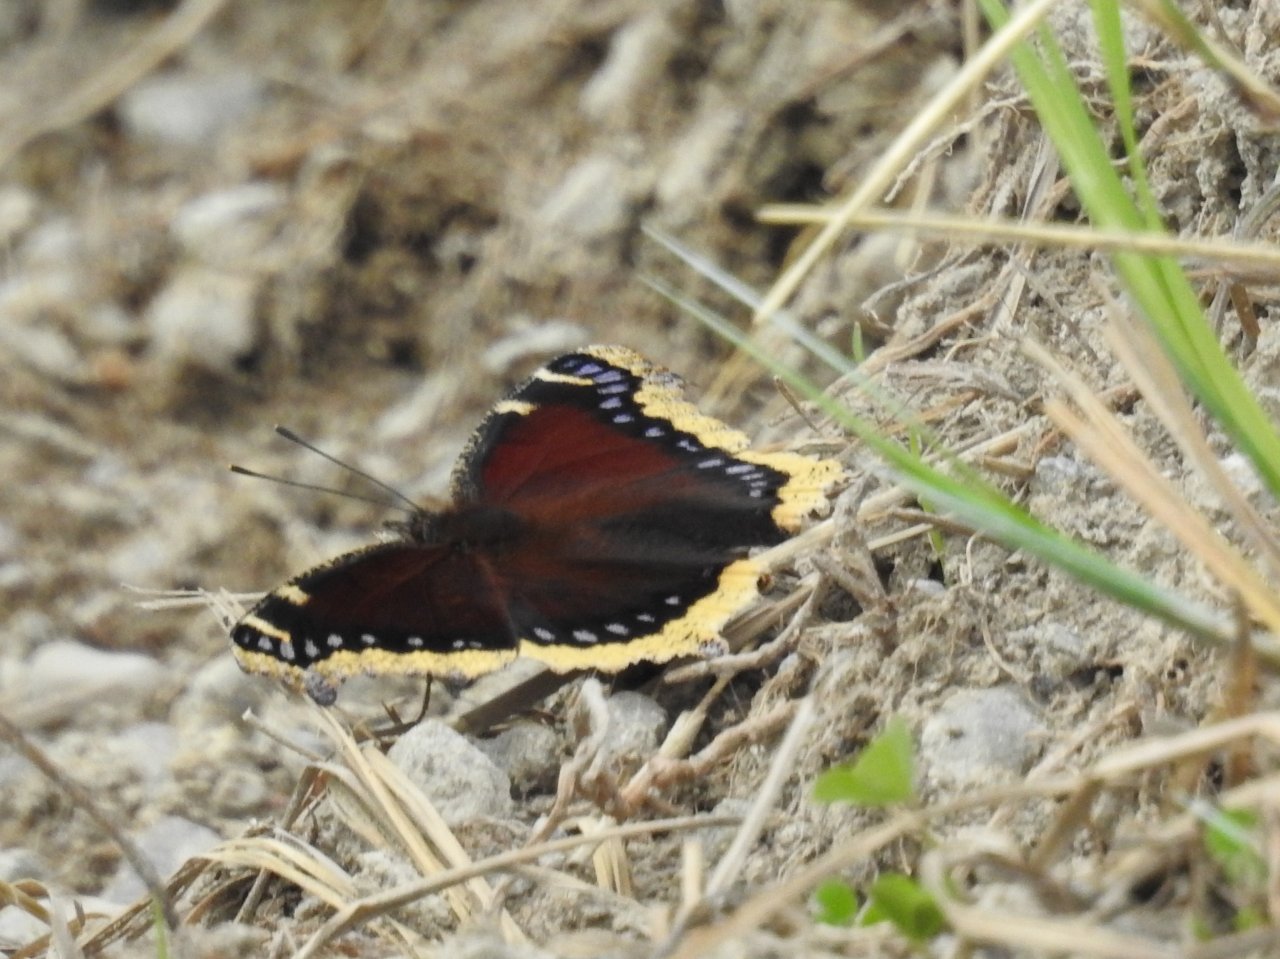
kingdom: Animalia
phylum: Arthropoda
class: Insecta
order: Lepidoptera
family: Nymphalidae
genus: Nymphalis
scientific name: Nymphalis antiopa
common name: Mourning Cloak
